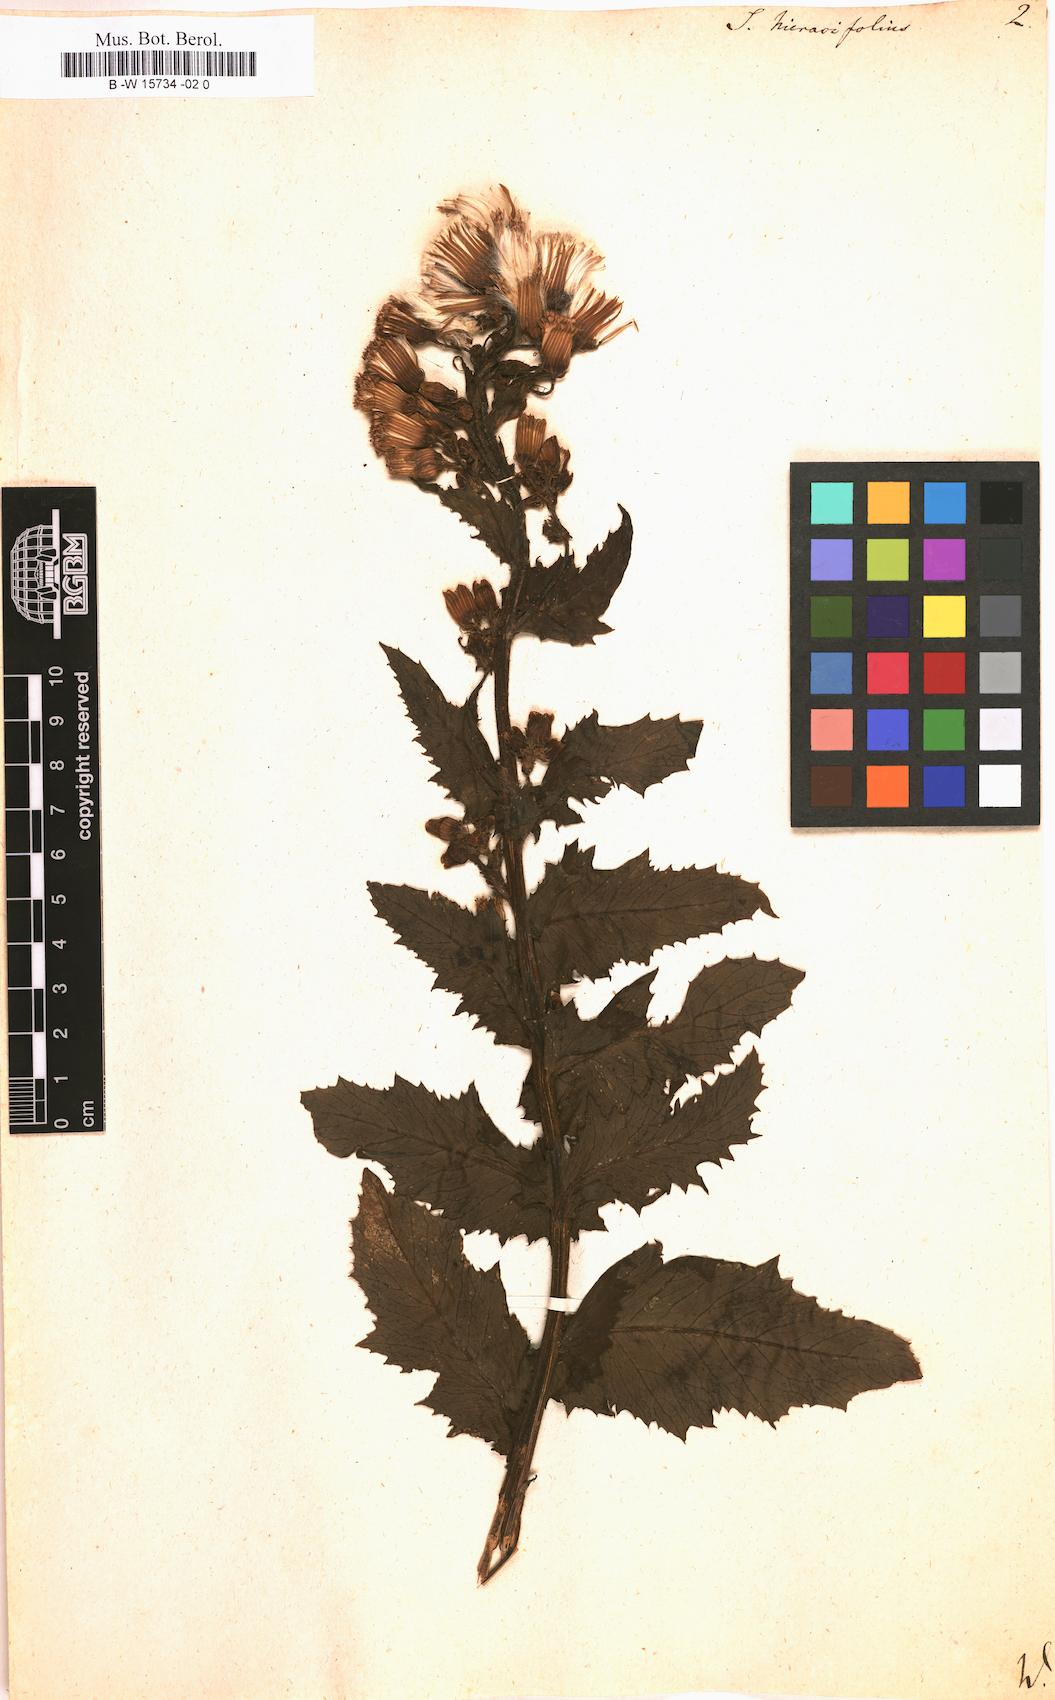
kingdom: Plantae
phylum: Tracheophyta
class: Magnoliopsida
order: Asterales
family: Asteraceae
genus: Senecio
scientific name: Senecio hieracifolius
